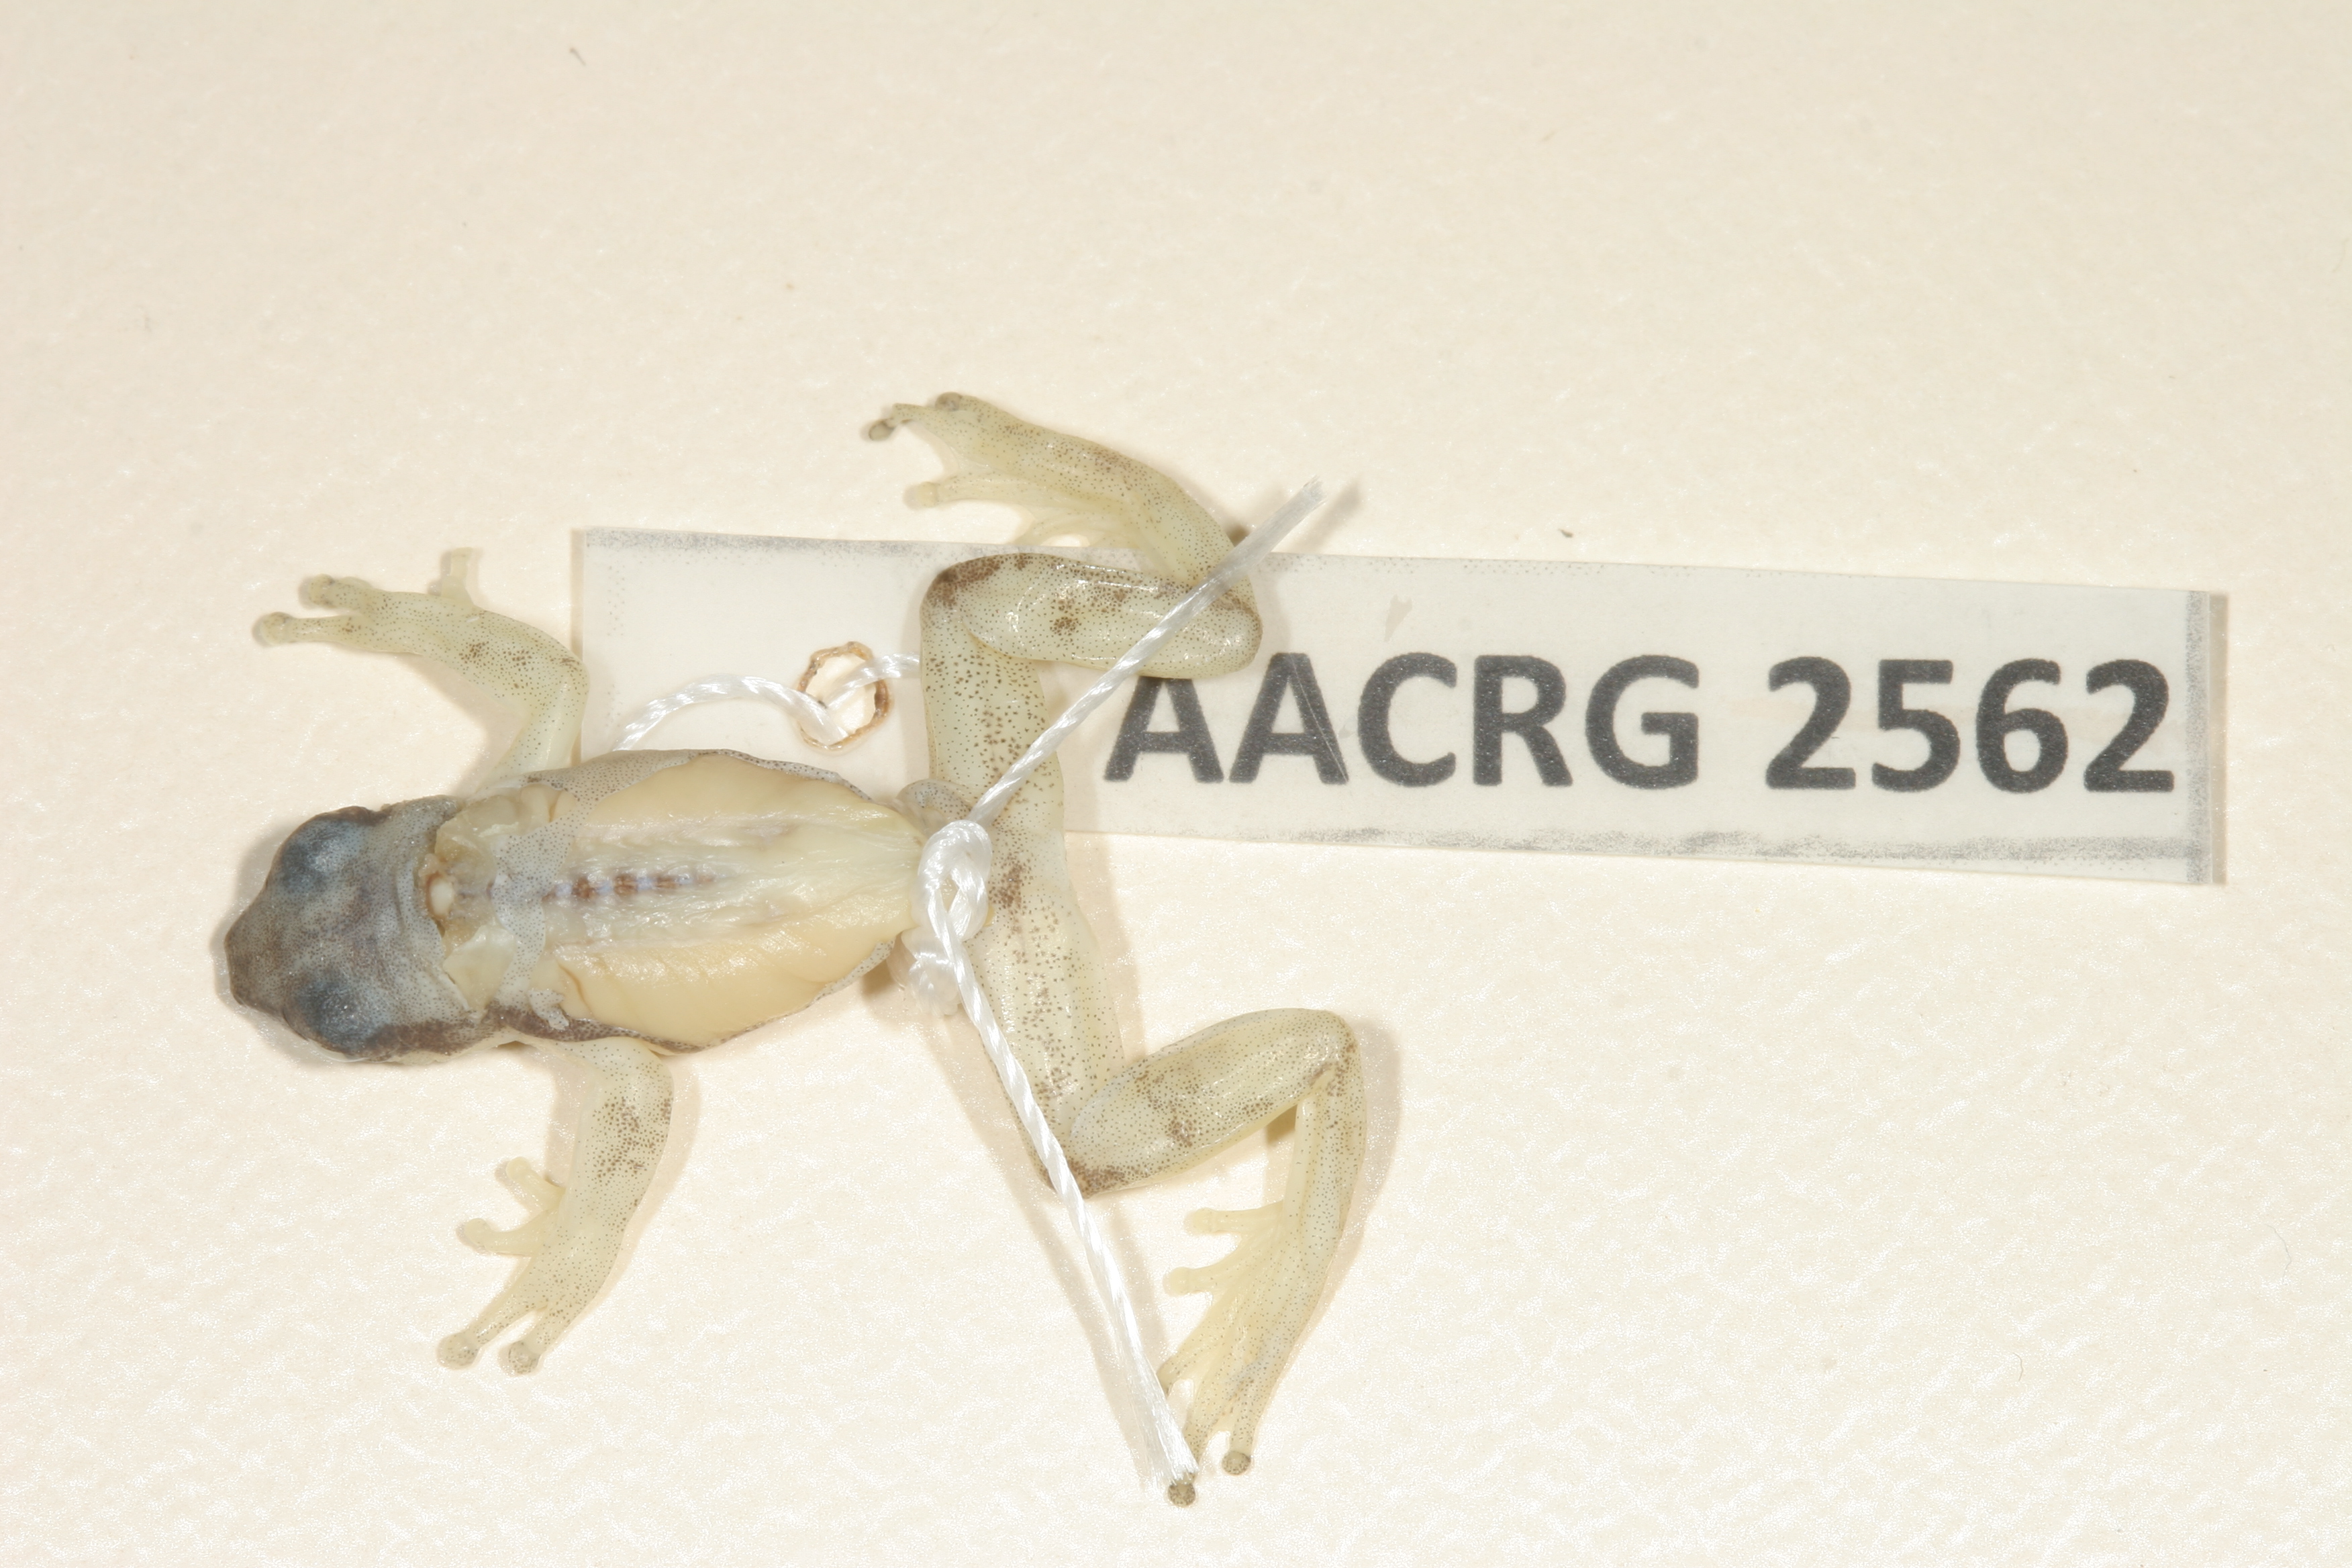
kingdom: Animalia
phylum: Chordata
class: Amphibia
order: Anura
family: Hyperoliidae
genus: Afrixalus
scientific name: Afrixalus aureus
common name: Golden banana frog
